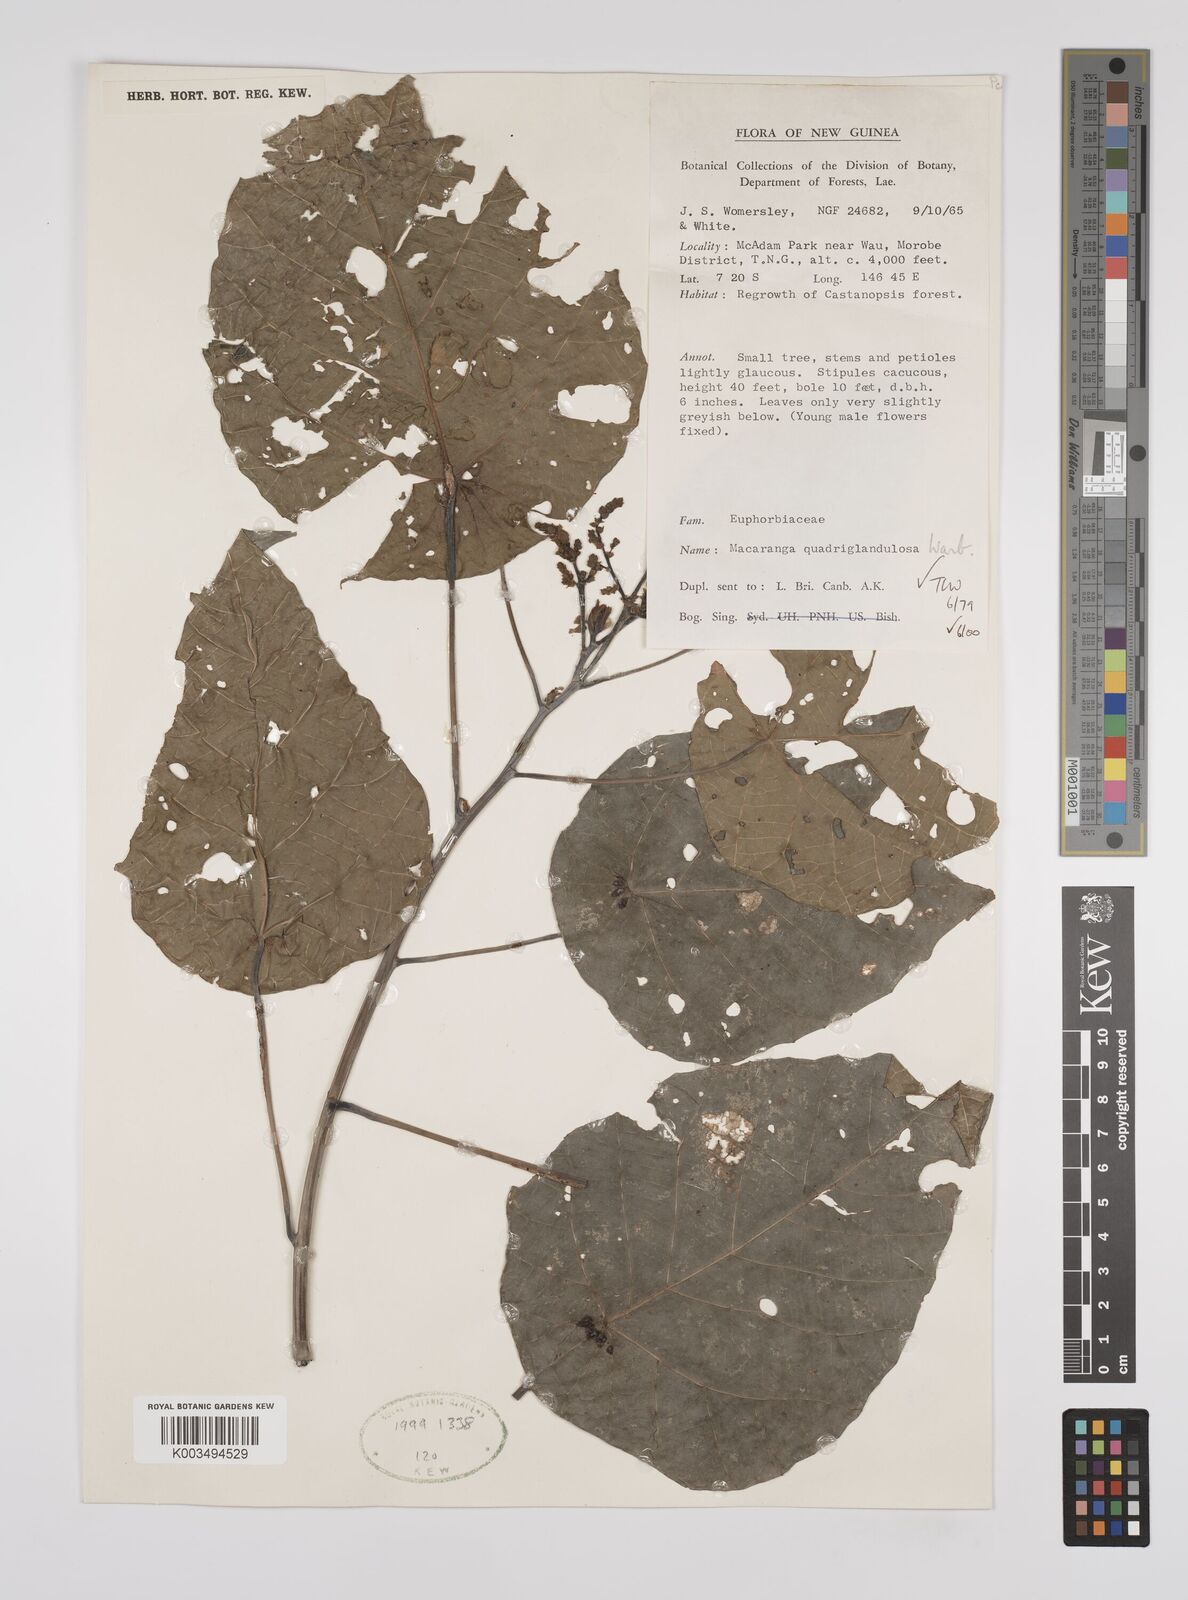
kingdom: Plantae
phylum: Tracheophyta
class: Magnoliopsida
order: Malpighiales
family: Euphorbiaceae
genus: Macaranga
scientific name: Macaranga quadriglandulosa
